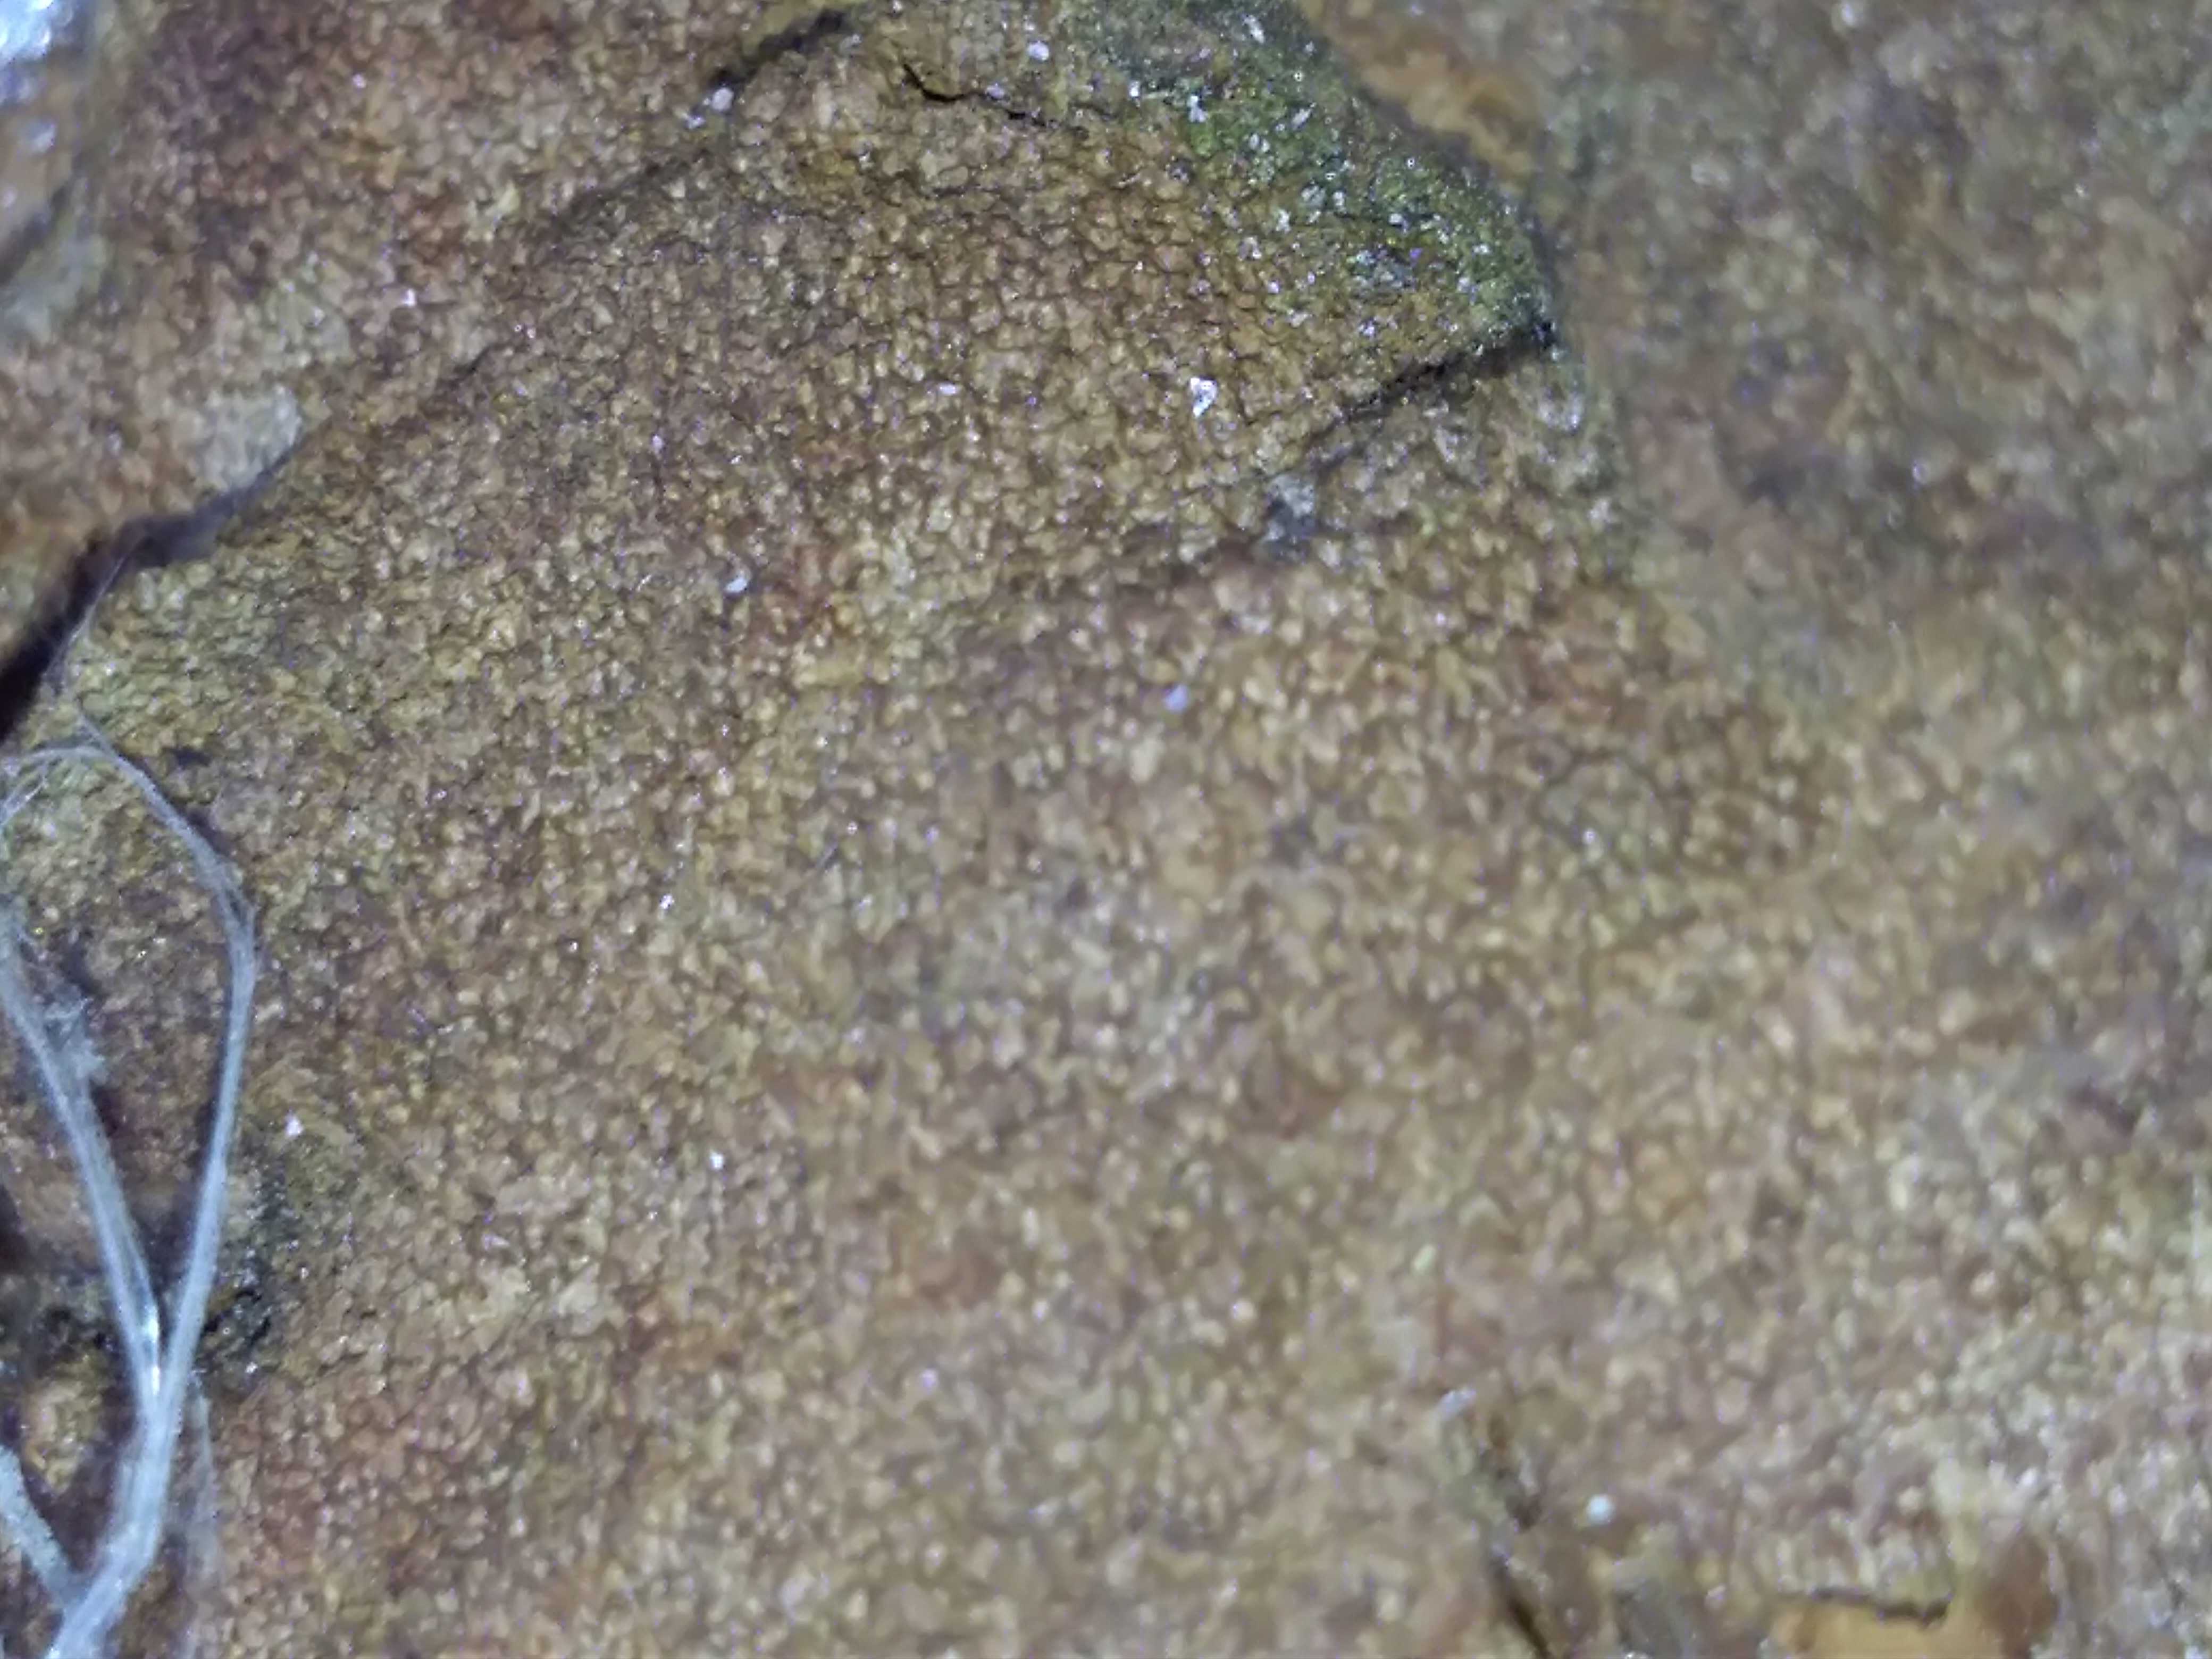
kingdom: Fungi
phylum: Basidiomycota
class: Agaricomycetes
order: Hymenochaetales
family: Hymenochaetaceae
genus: Phellinus
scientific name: Phellinus pomaceus
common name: blomme-ildporesvamp
